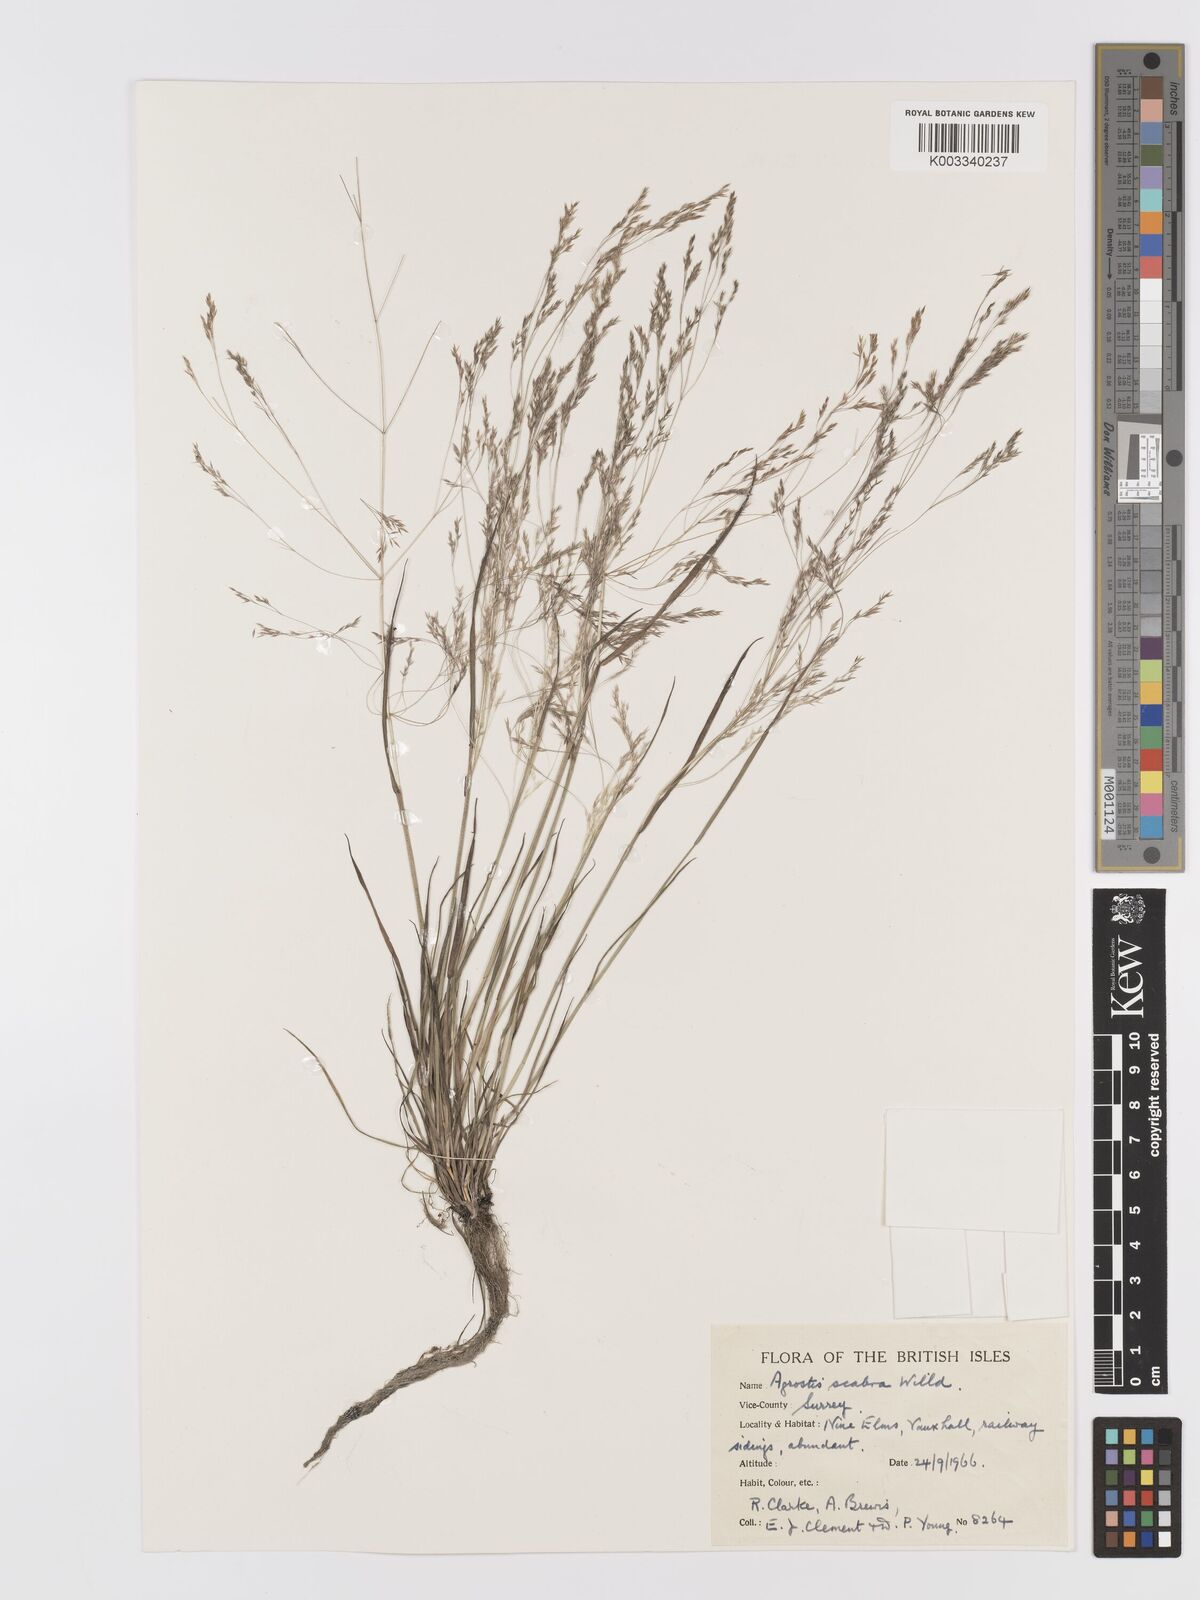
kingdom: Plantae
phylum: Tracheophyta
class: Liliopsida
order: Poales
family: Poaceae
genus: Agrostis
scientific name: Agrostis scabra
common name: Rough bent
